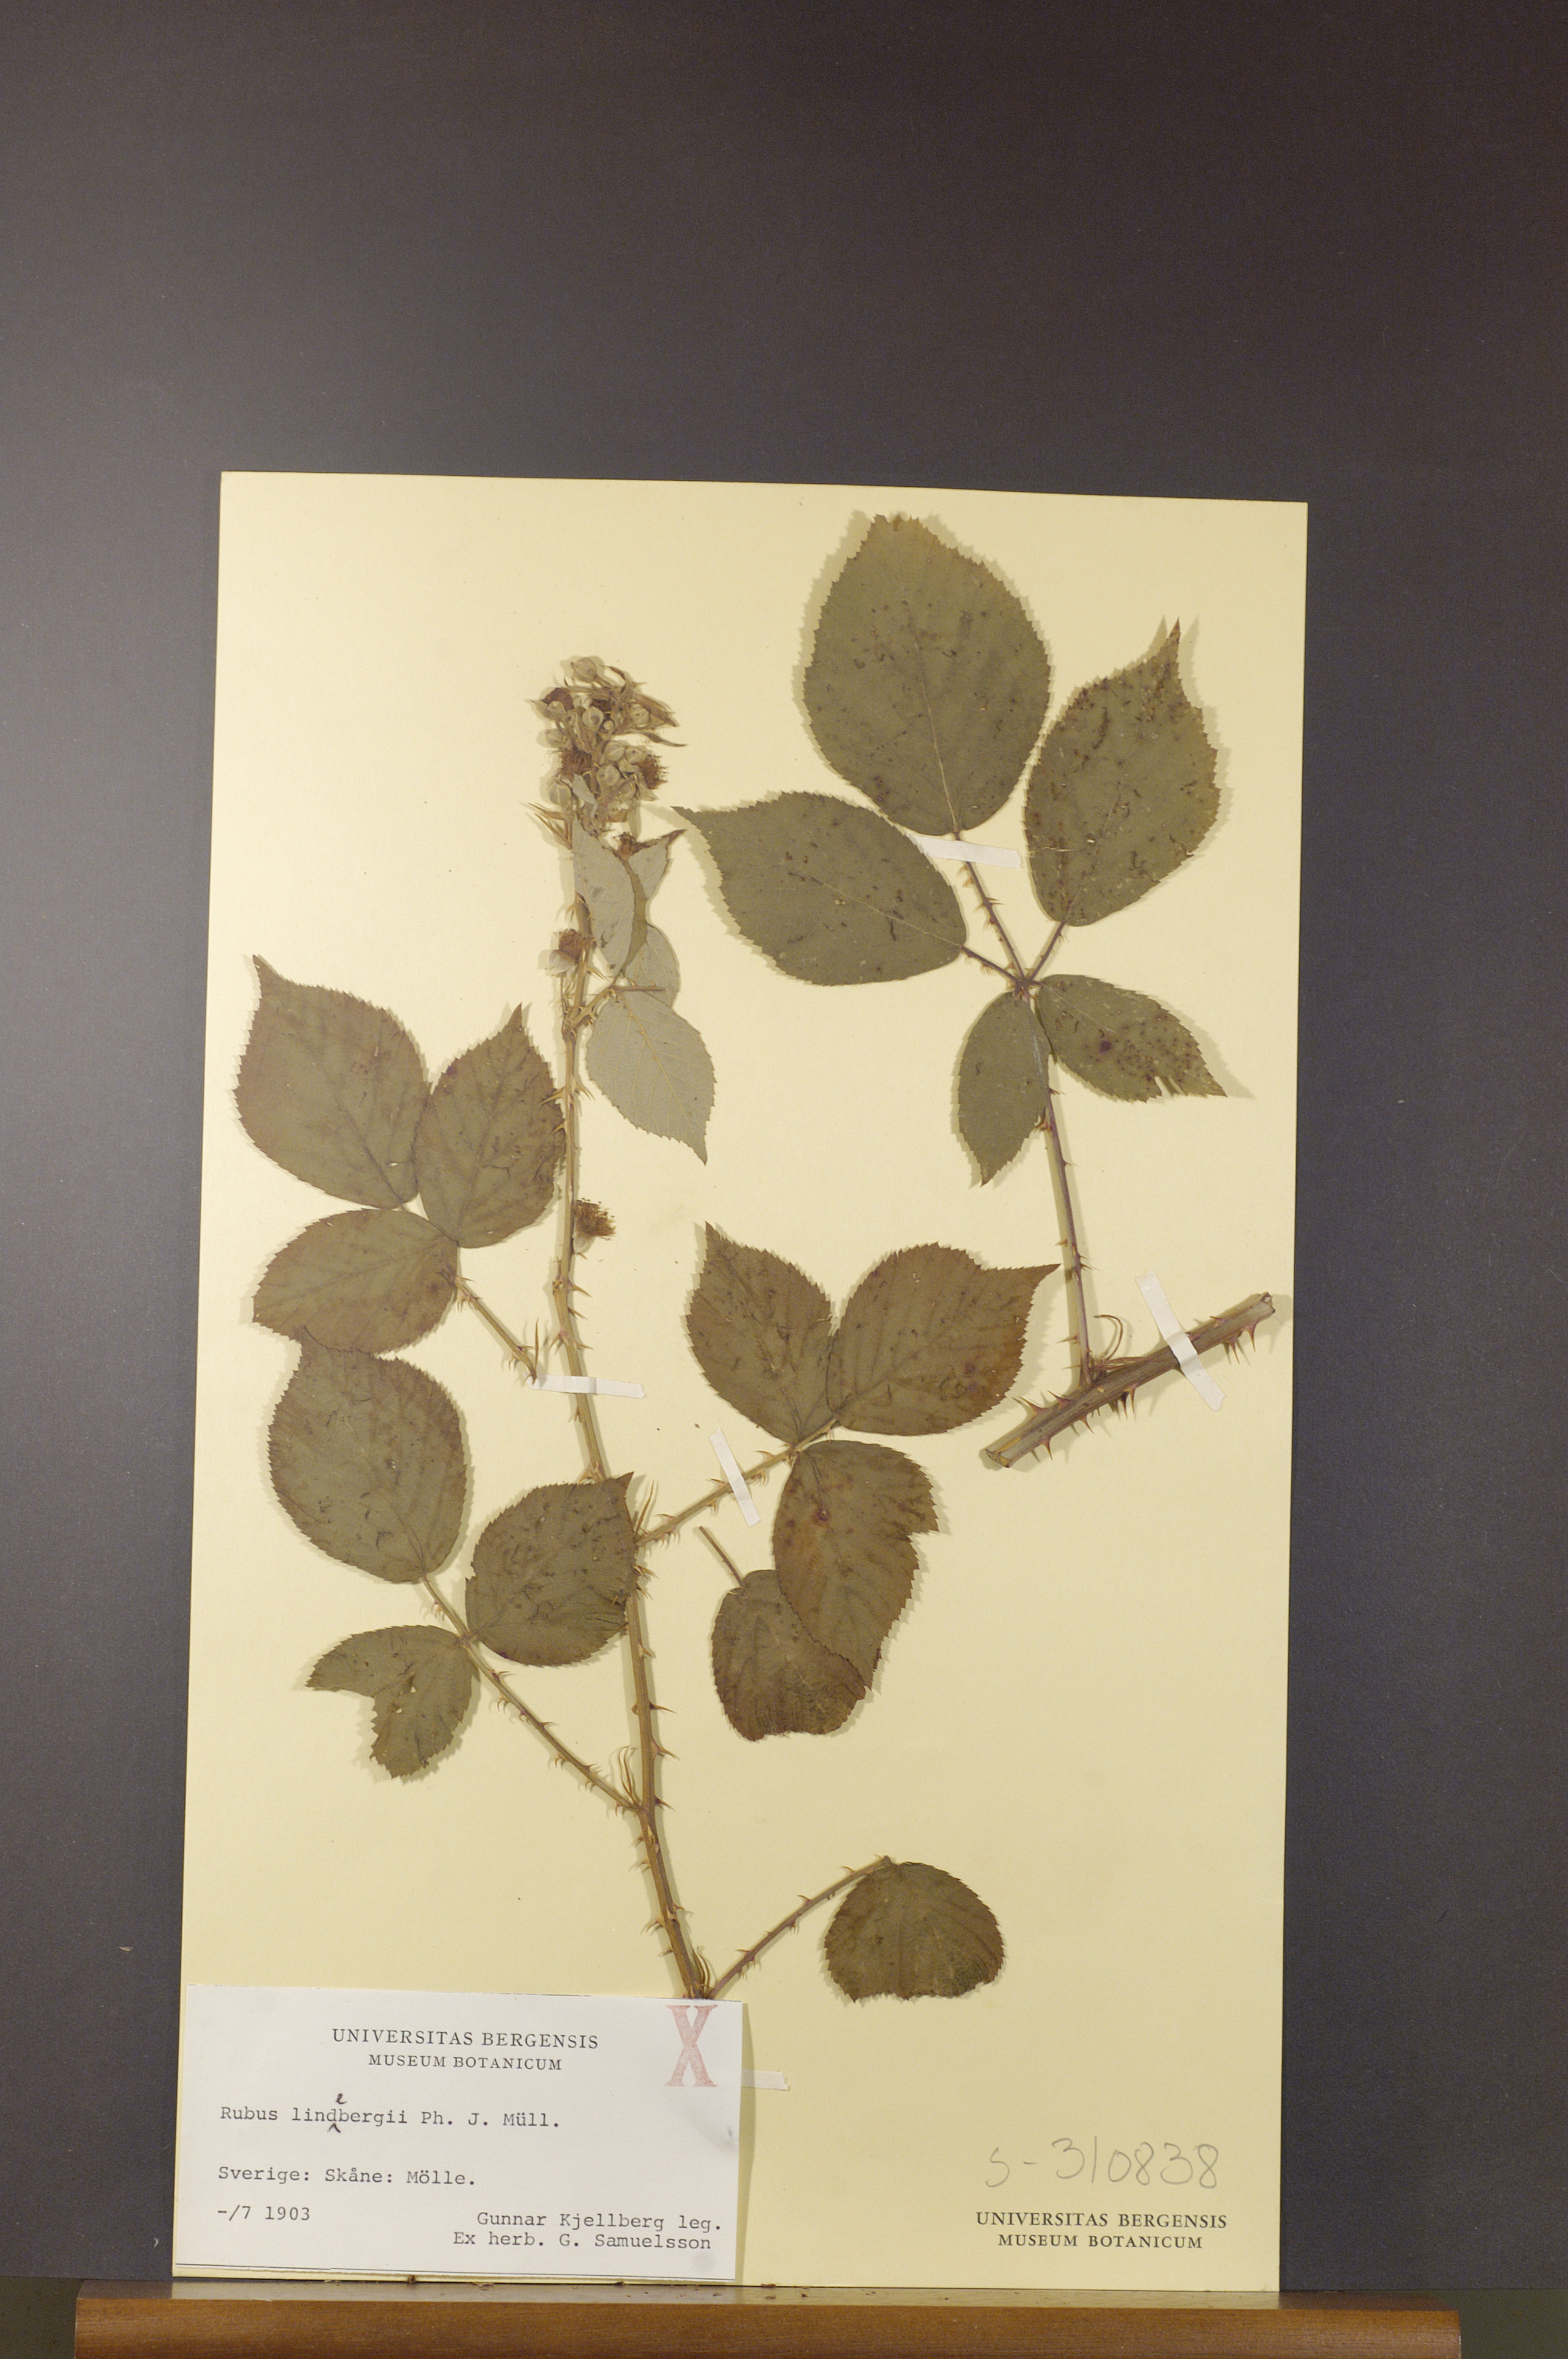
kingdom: Plantae
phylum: Tracheophyta
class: Magnoliopsida
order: Rosales
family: Rosaceae
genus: Rubus
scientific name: Rubus lindebergii
